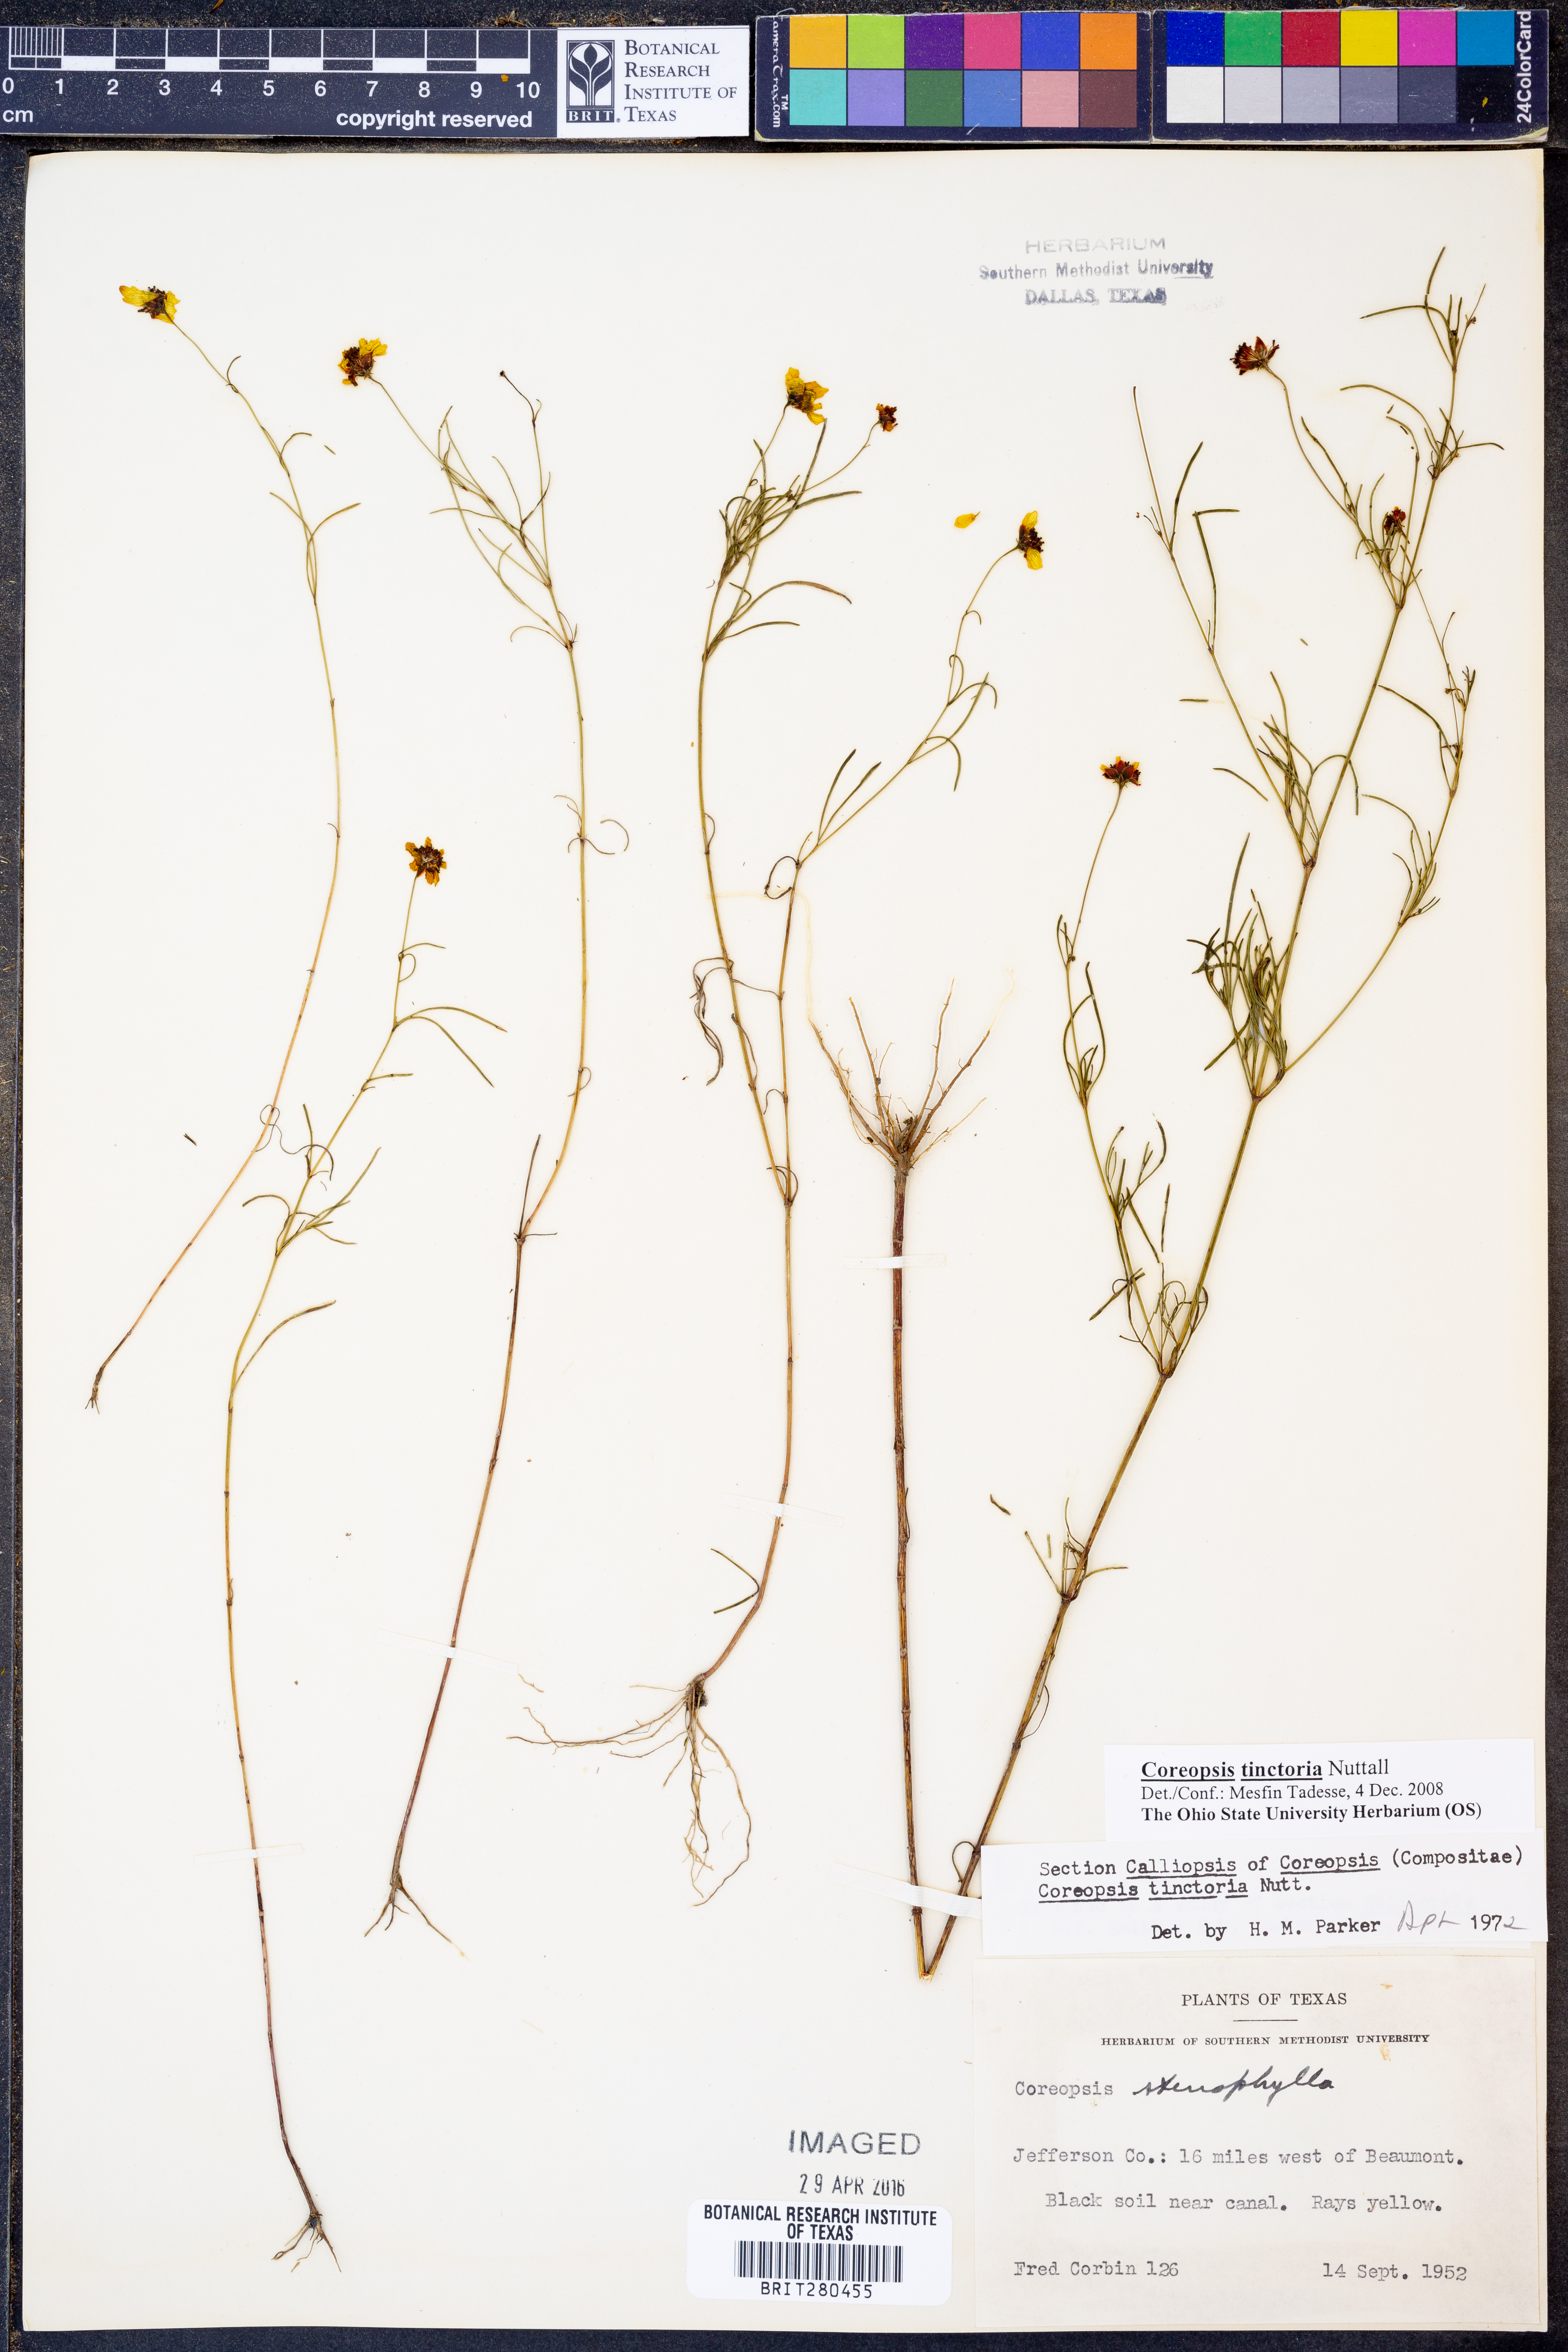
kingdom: Plantae
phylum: Tracheophyta
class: Magnoliopsida
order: Asterales
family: Asteraceae
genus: Coreopsis
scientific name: Coreopsis tinctoria
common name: Garden tickseed
